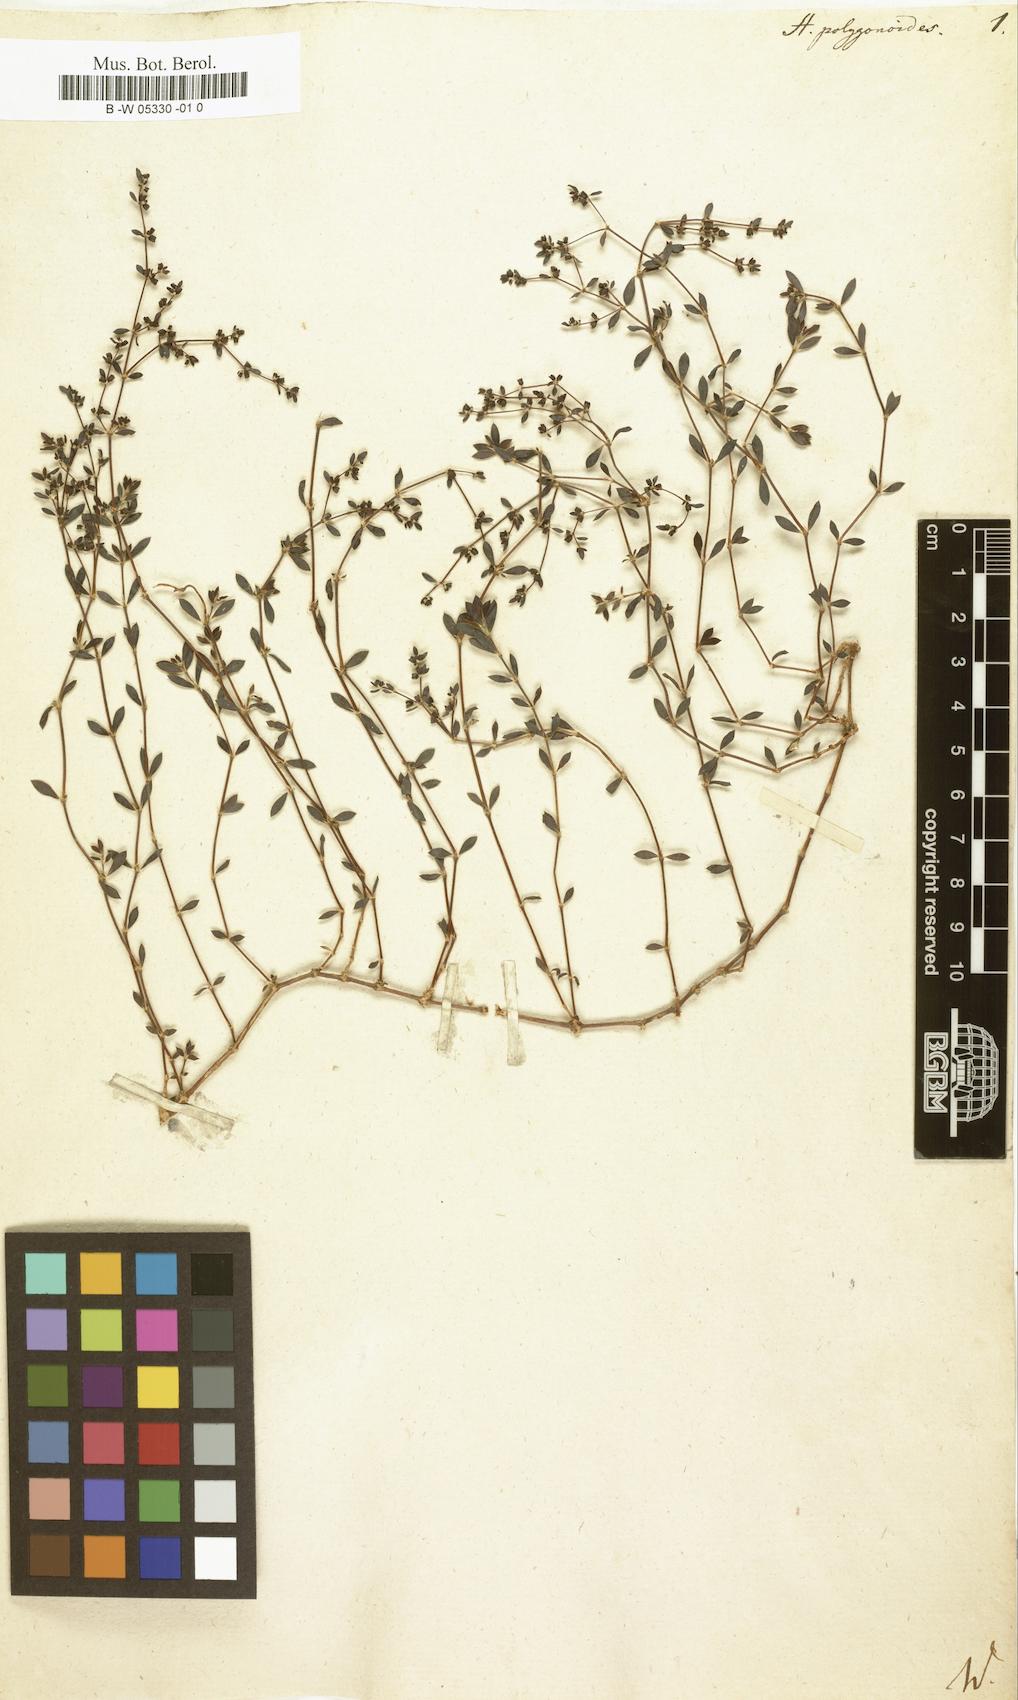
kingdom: Plantae
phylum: Tracheophyta
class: Magnoliopsida
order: Caryophyllales
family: Caryophyllaceae
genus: Paronychia
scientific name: Paronychia suffruticosa
